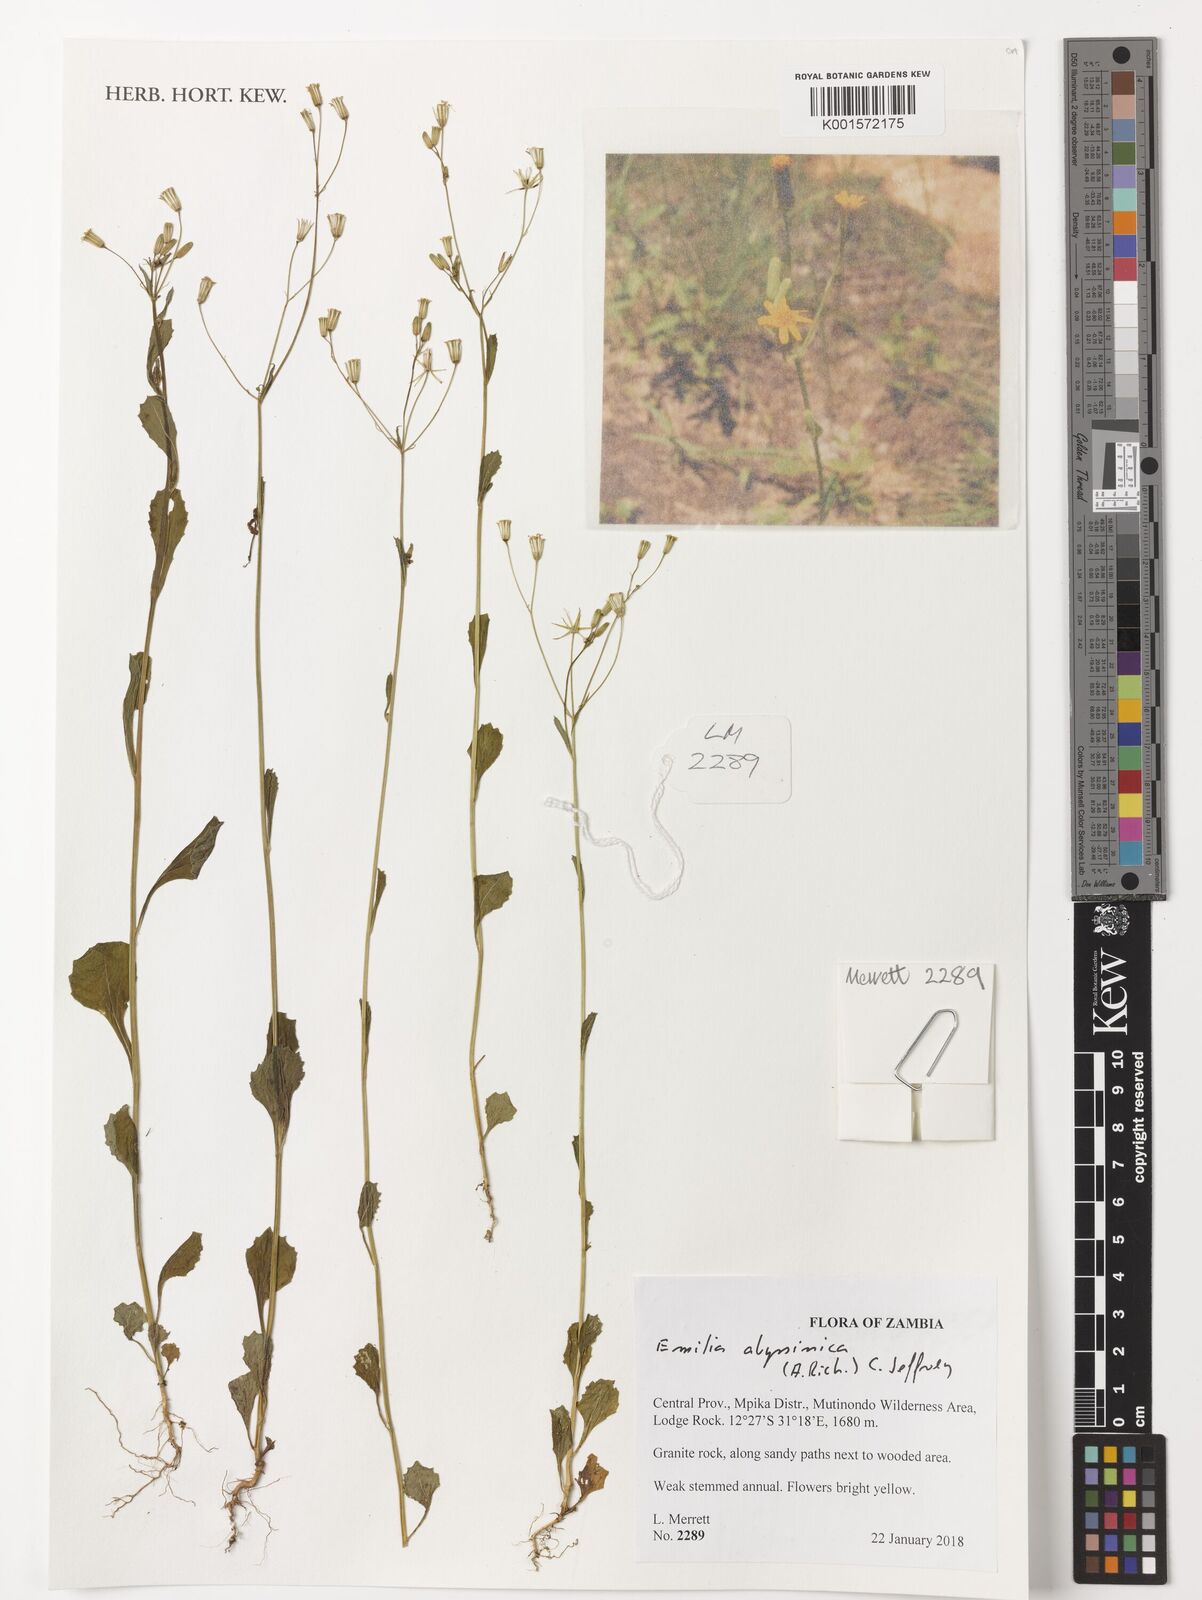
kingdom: Plantae
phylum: Tracheophyta
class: Magnoliopsida
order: Asterales
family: Asteraceae
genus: Emilia
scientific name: Emilia abyssinica
